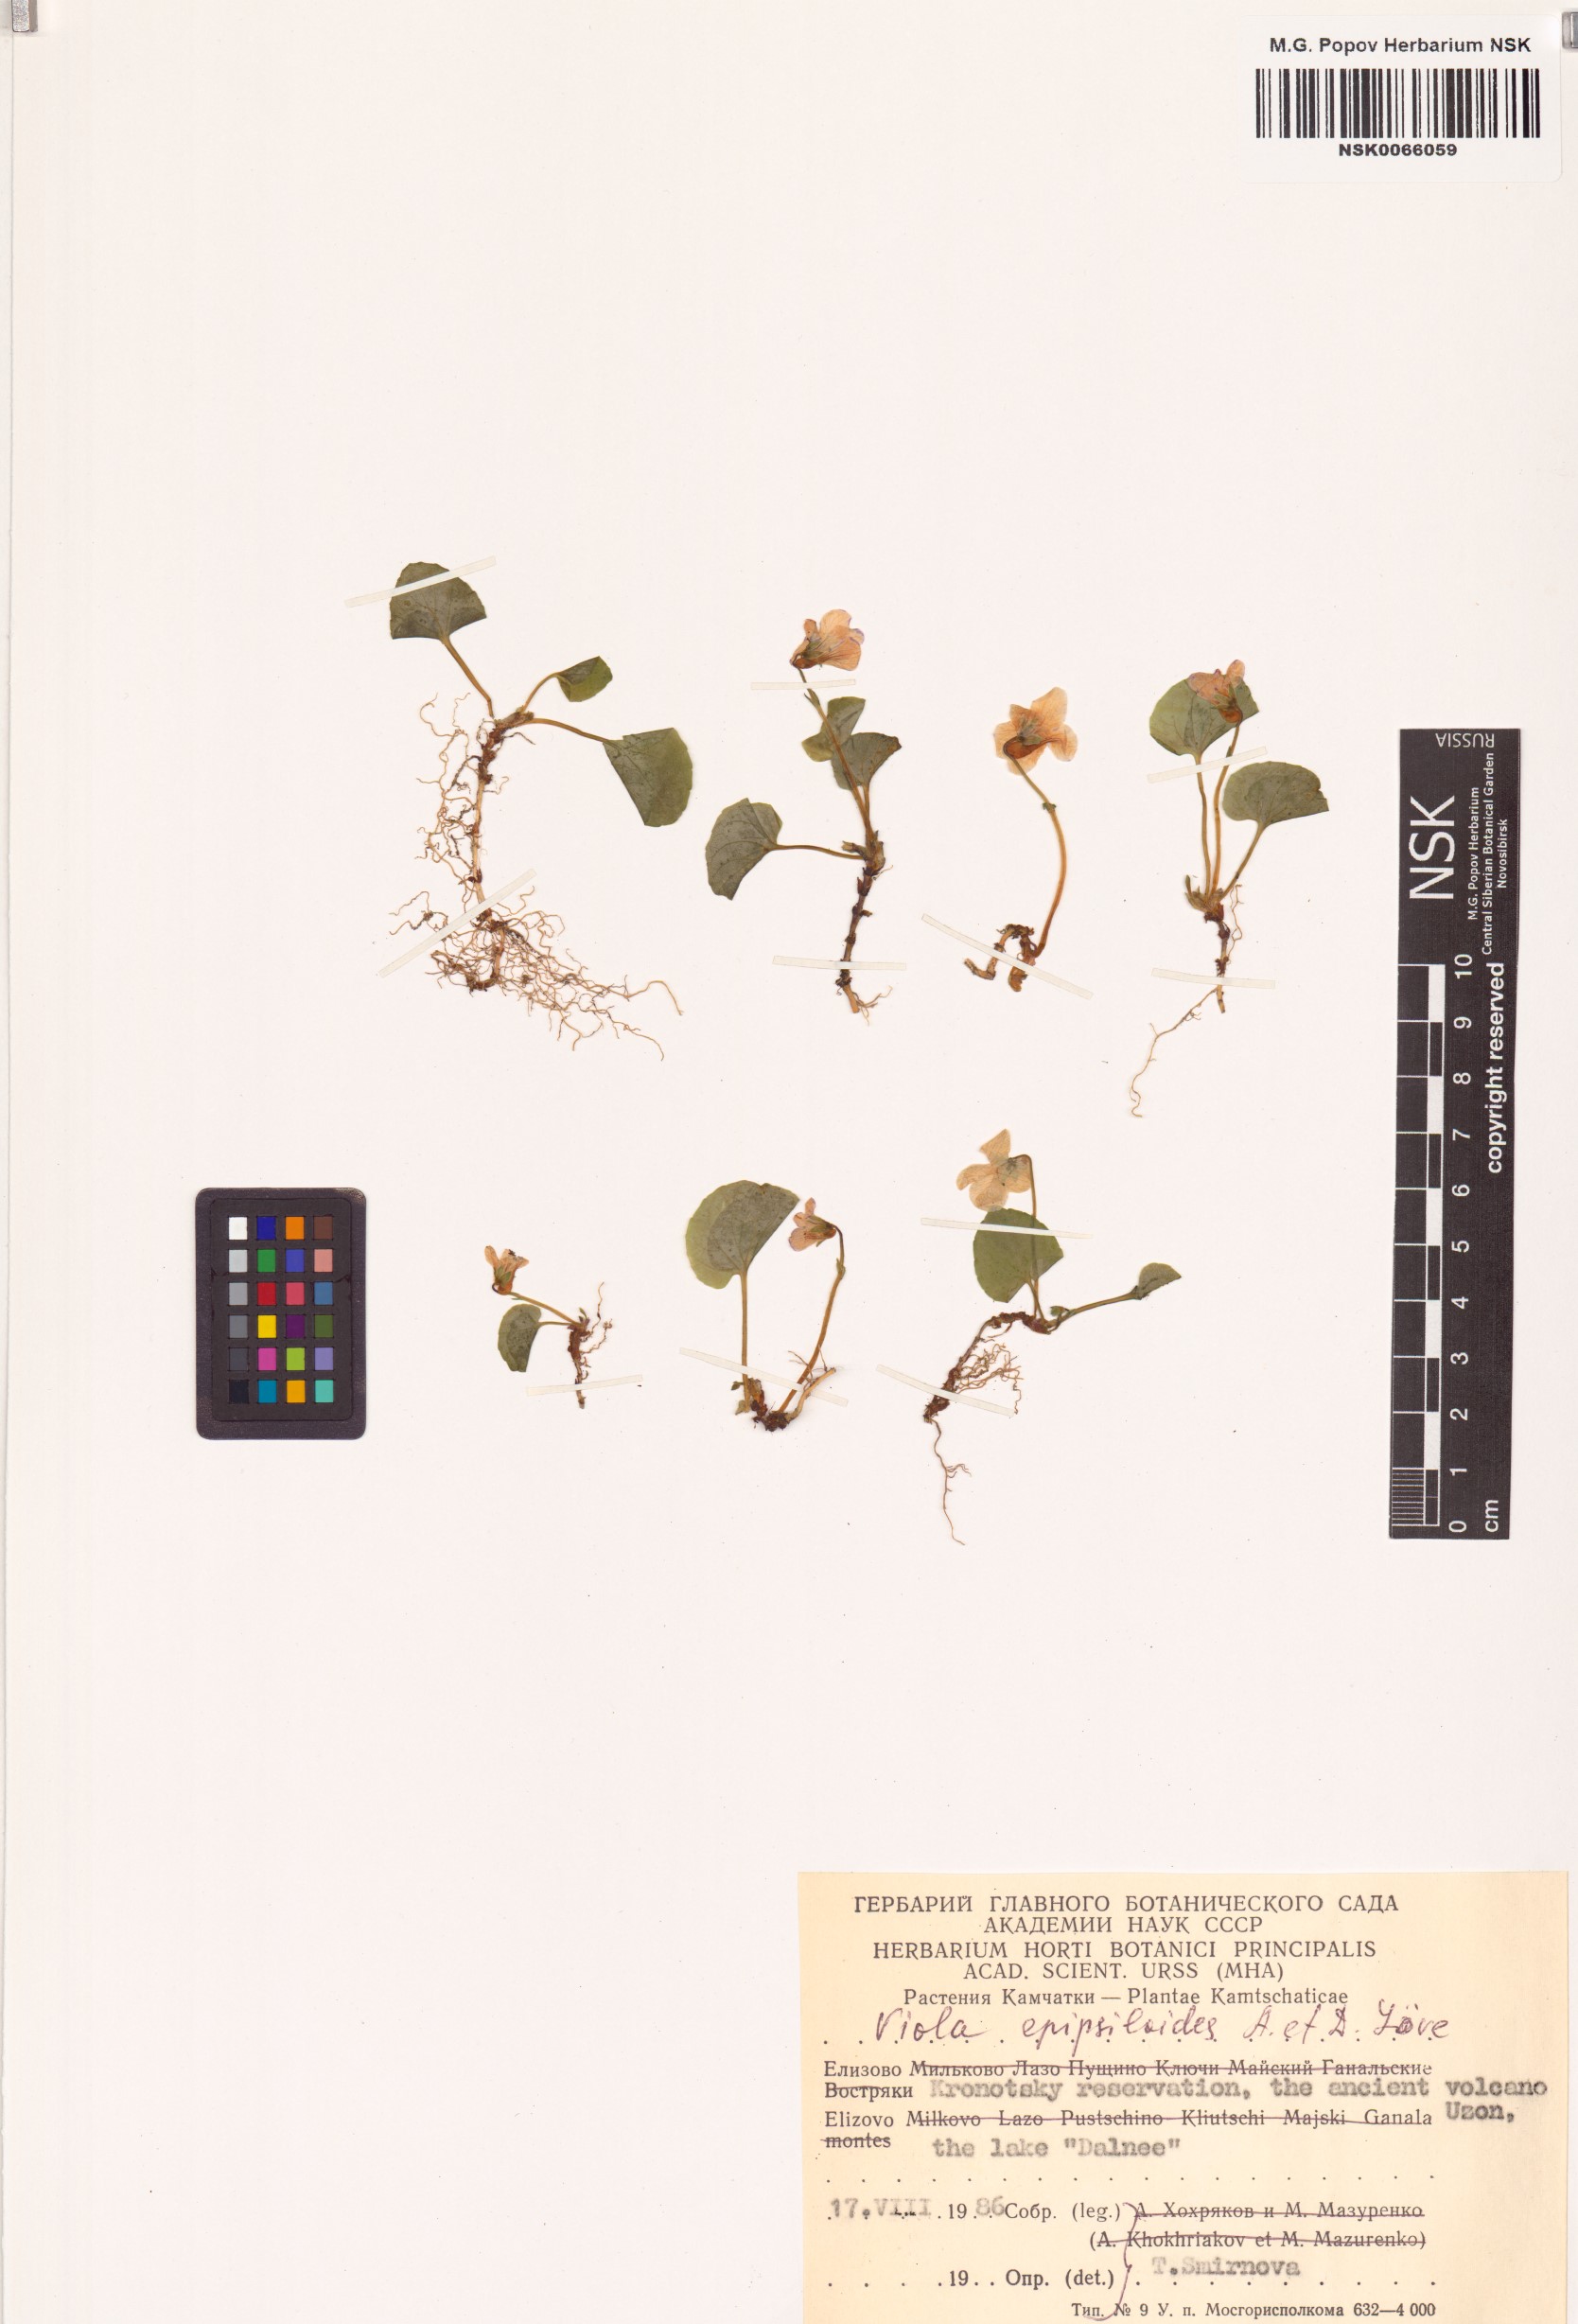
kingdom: Plantae
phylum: Tracheophyta
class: Magnoliopsida
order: Malpighiales
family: Violaceae
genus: Viola
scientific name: Viola epipsila
